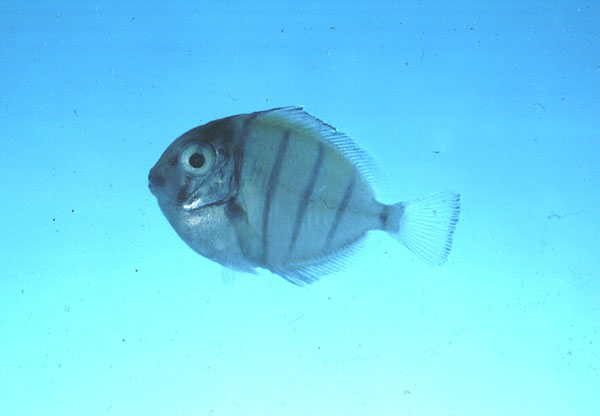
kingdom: Animalia
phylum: Chordata
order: Perciformes
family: Acanthuridae
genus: Acanthurus
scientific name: Acanthurus triostegus
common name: Convict surgeonfish
